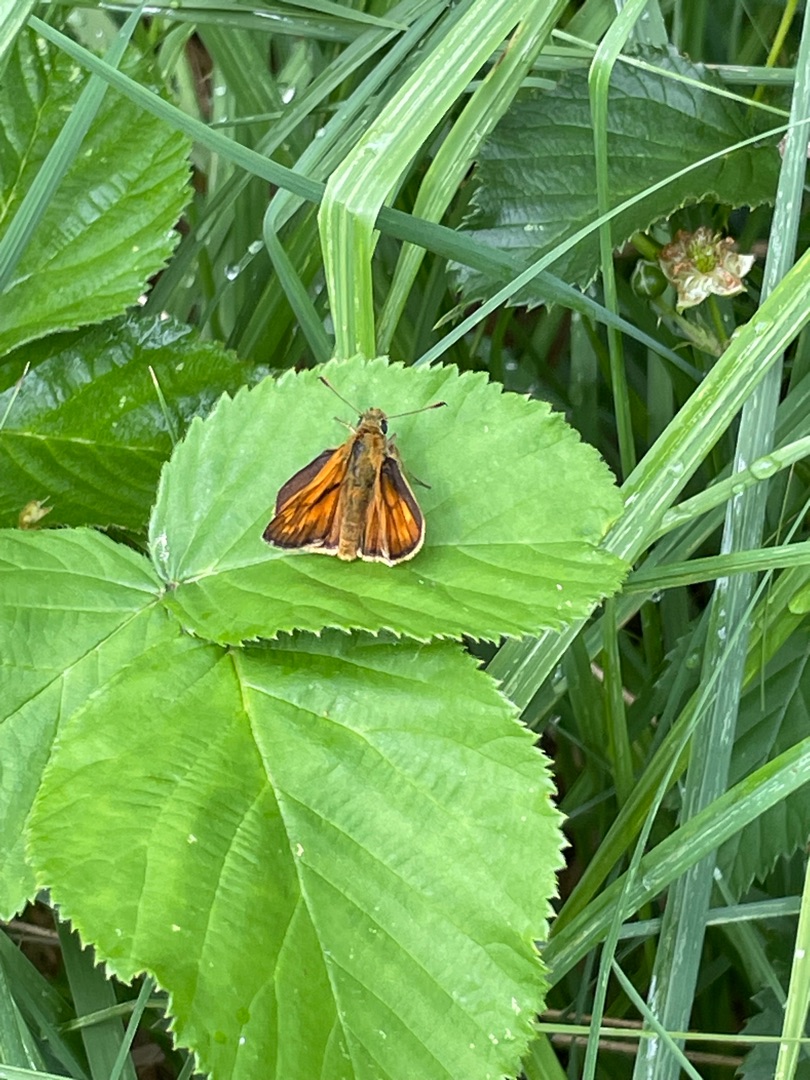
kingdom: Animalia
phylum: Arthropoda
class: Insecta
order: Lepidoptera
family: Hesperiidae
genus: Ochlodes
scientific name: Ochlodes venata
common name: Stor bredpande
